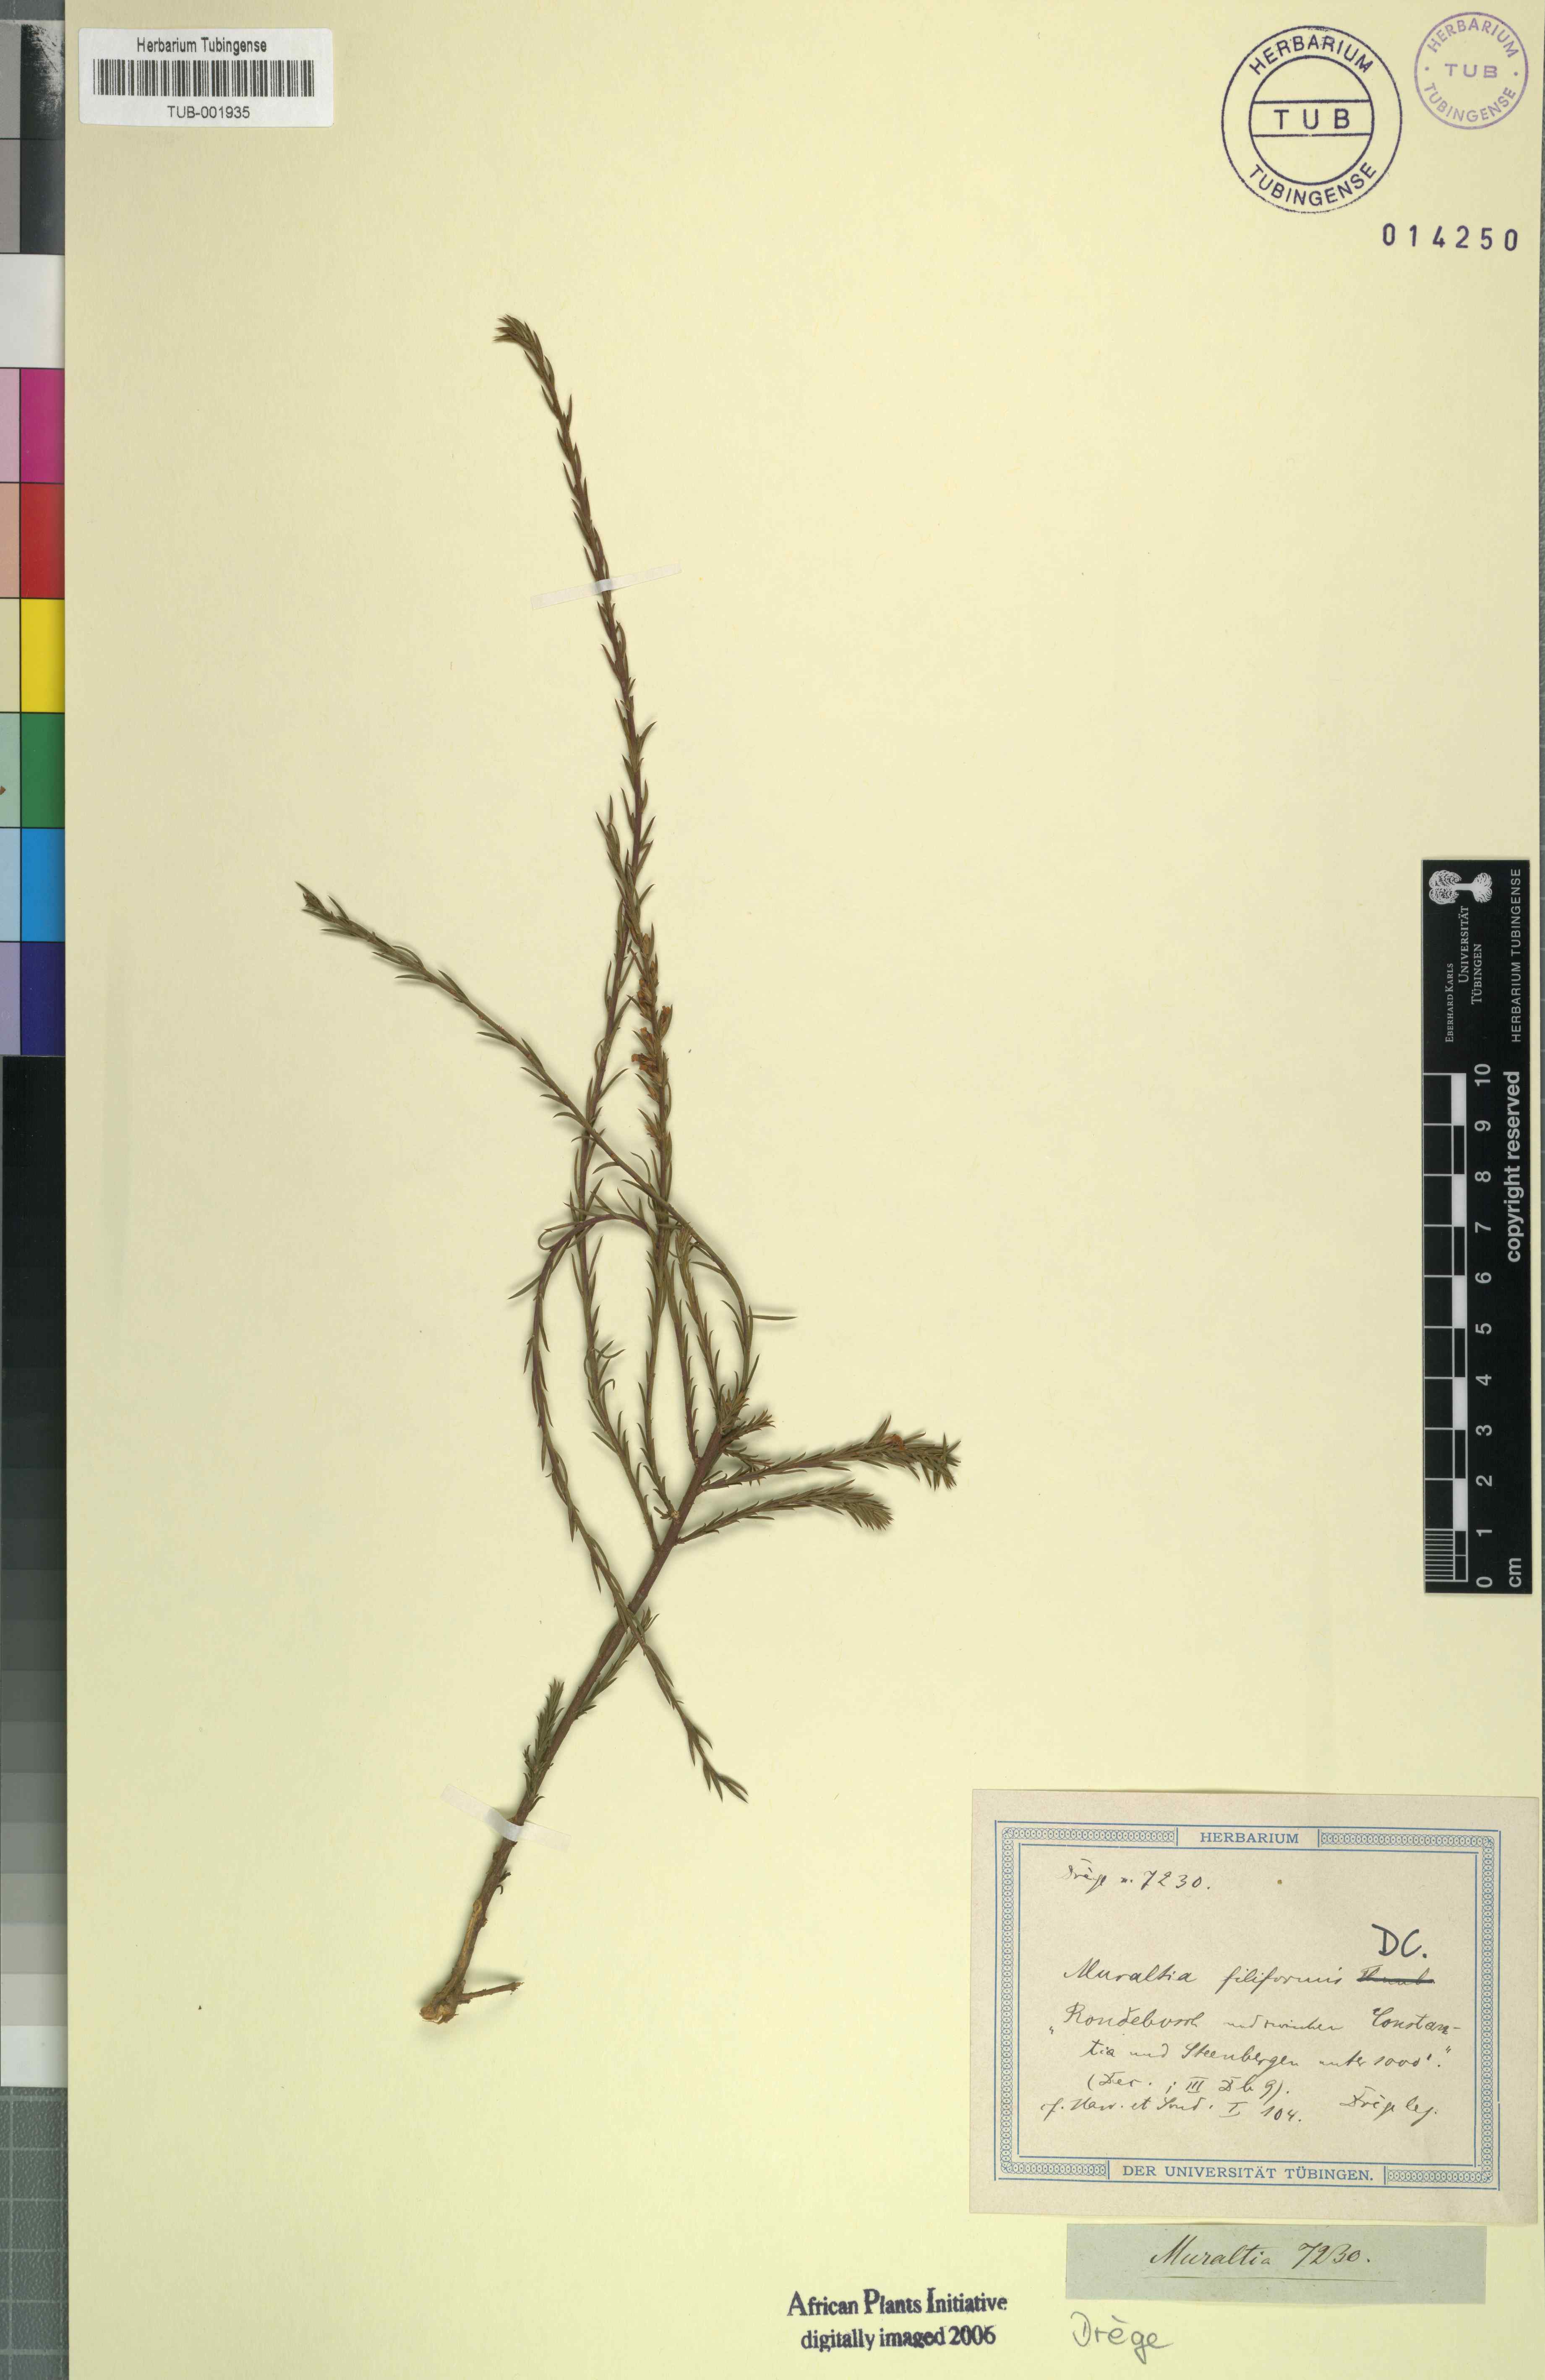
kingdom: Plantae
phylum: Tracheophyta
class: Magnoliopsida
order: Fabales
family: Polygalaceae
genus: Muraltia
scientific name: Muraltia filiformis
